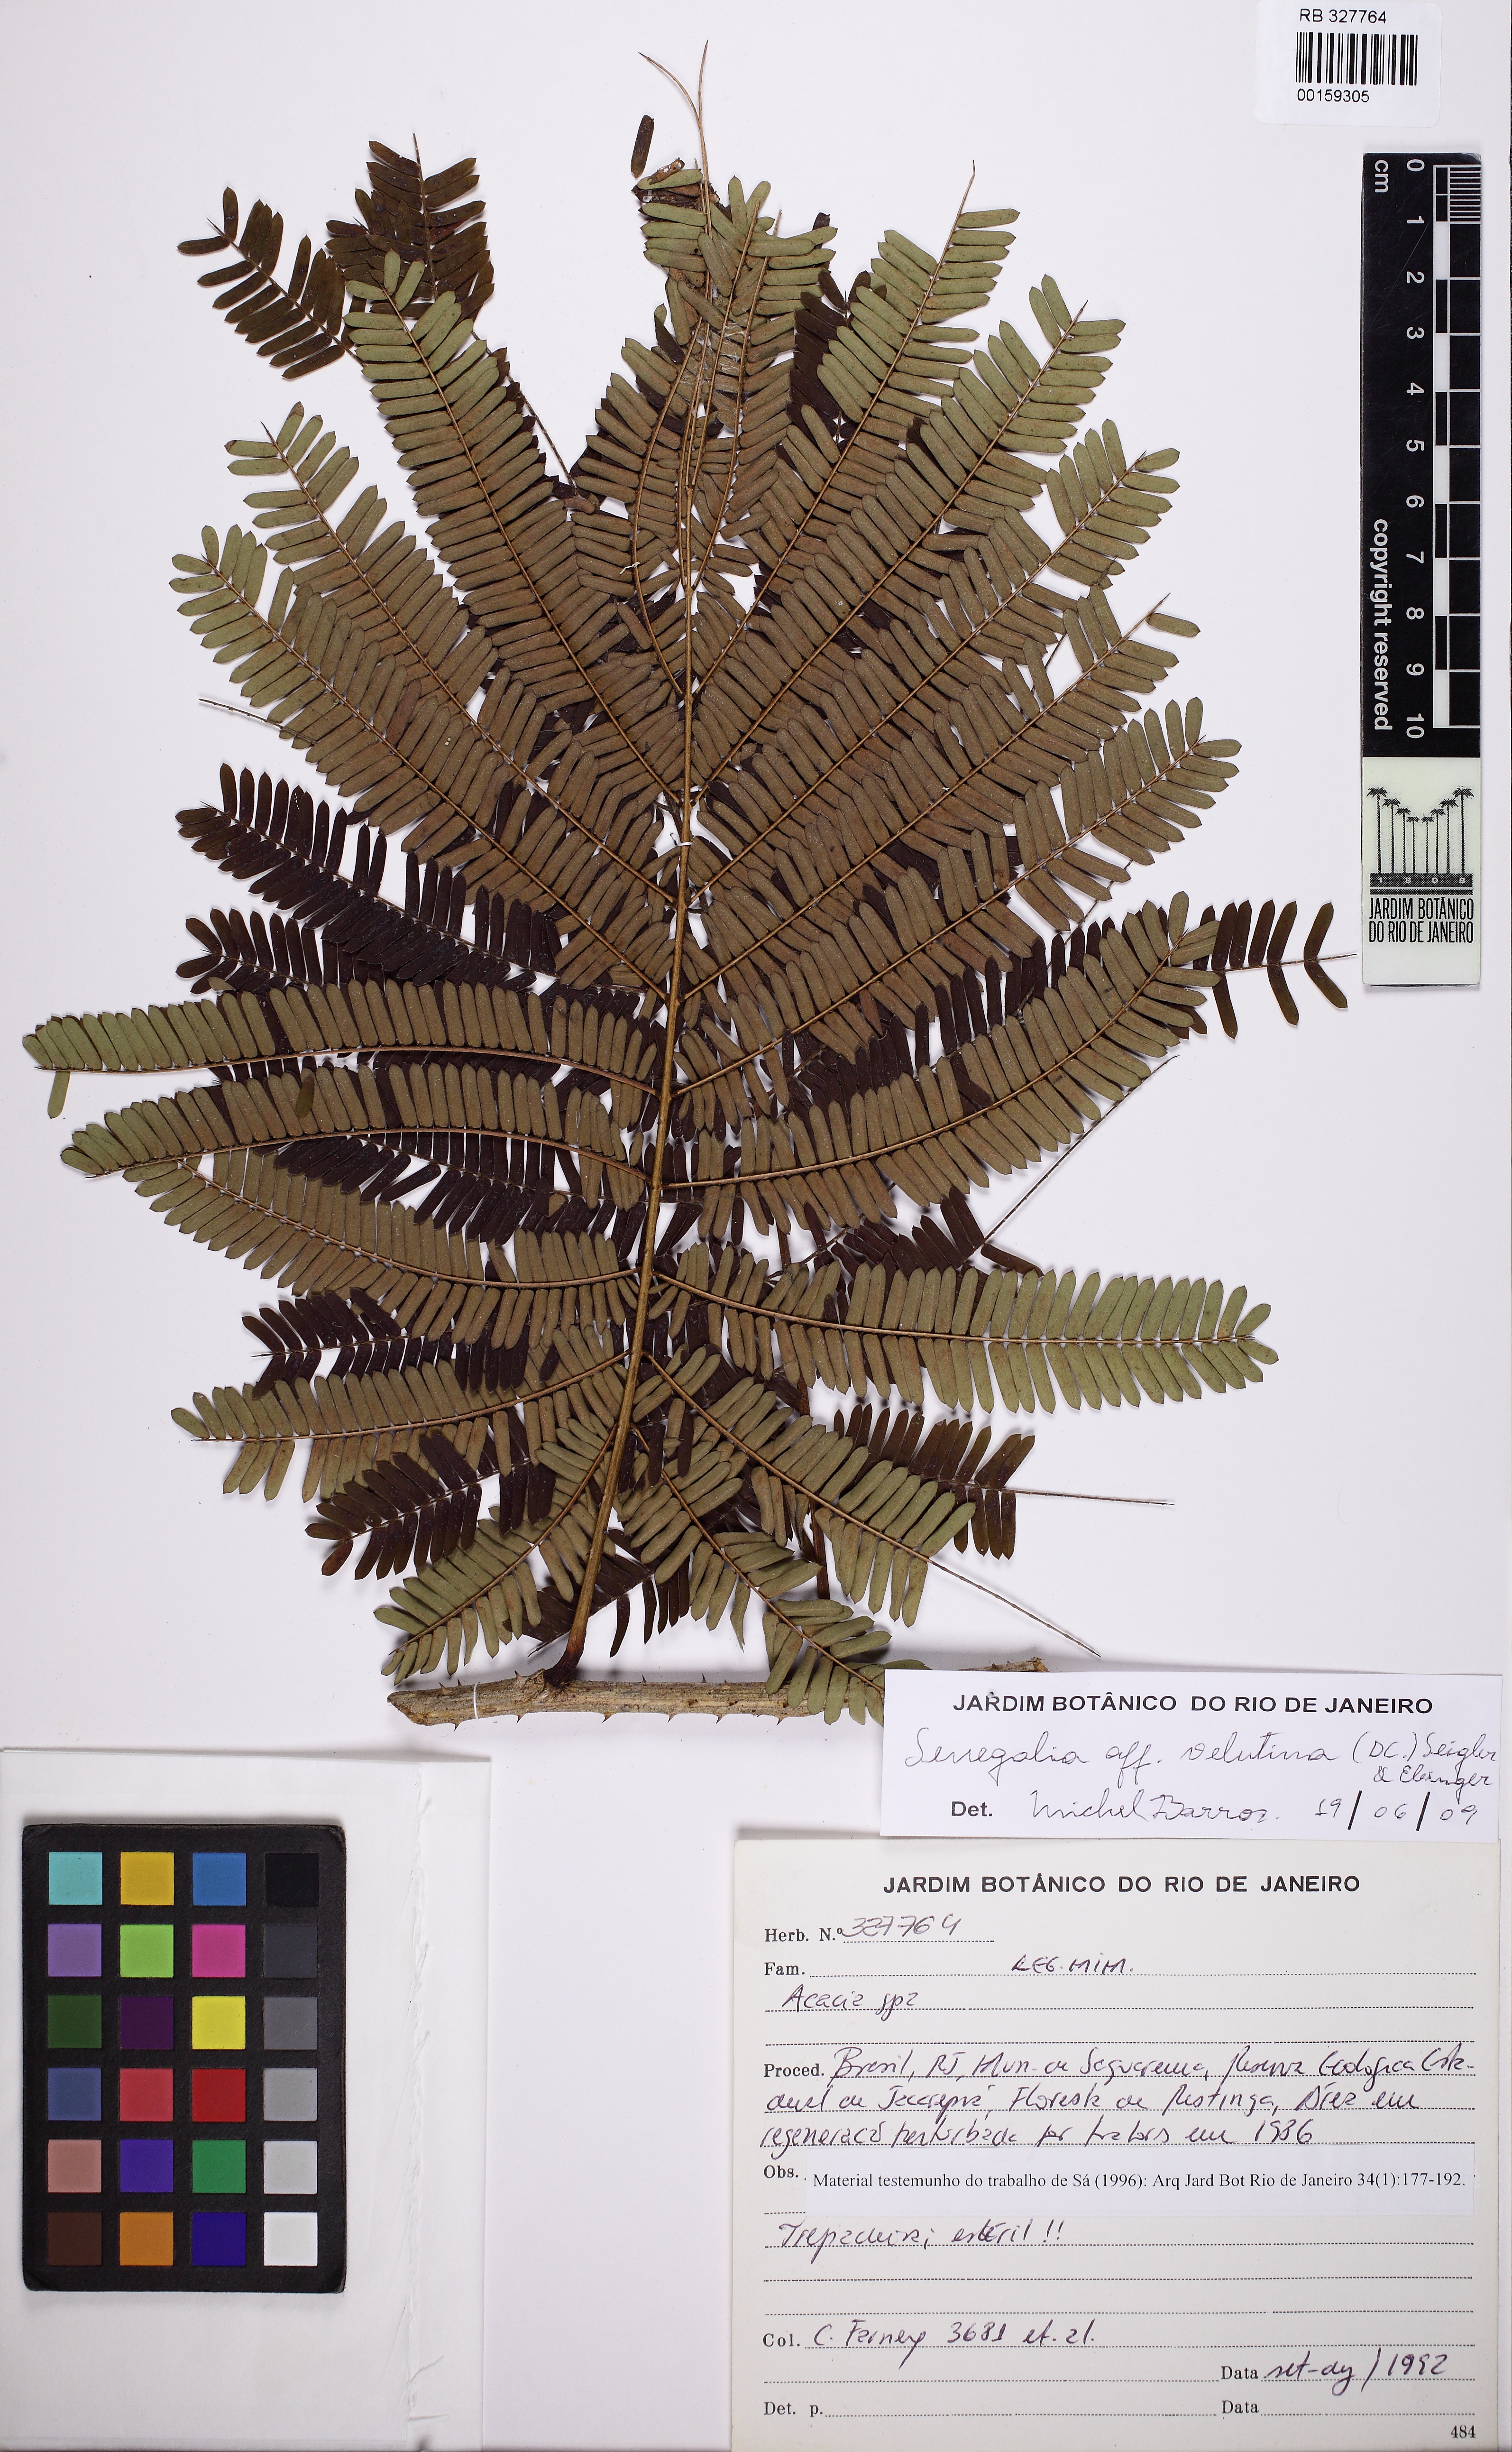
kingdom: Plantae
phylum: Tracheophyta
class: Magnoliopsida
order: Fabales
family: Fabaceae
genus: Senegalia
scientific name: Senegalia velutina
